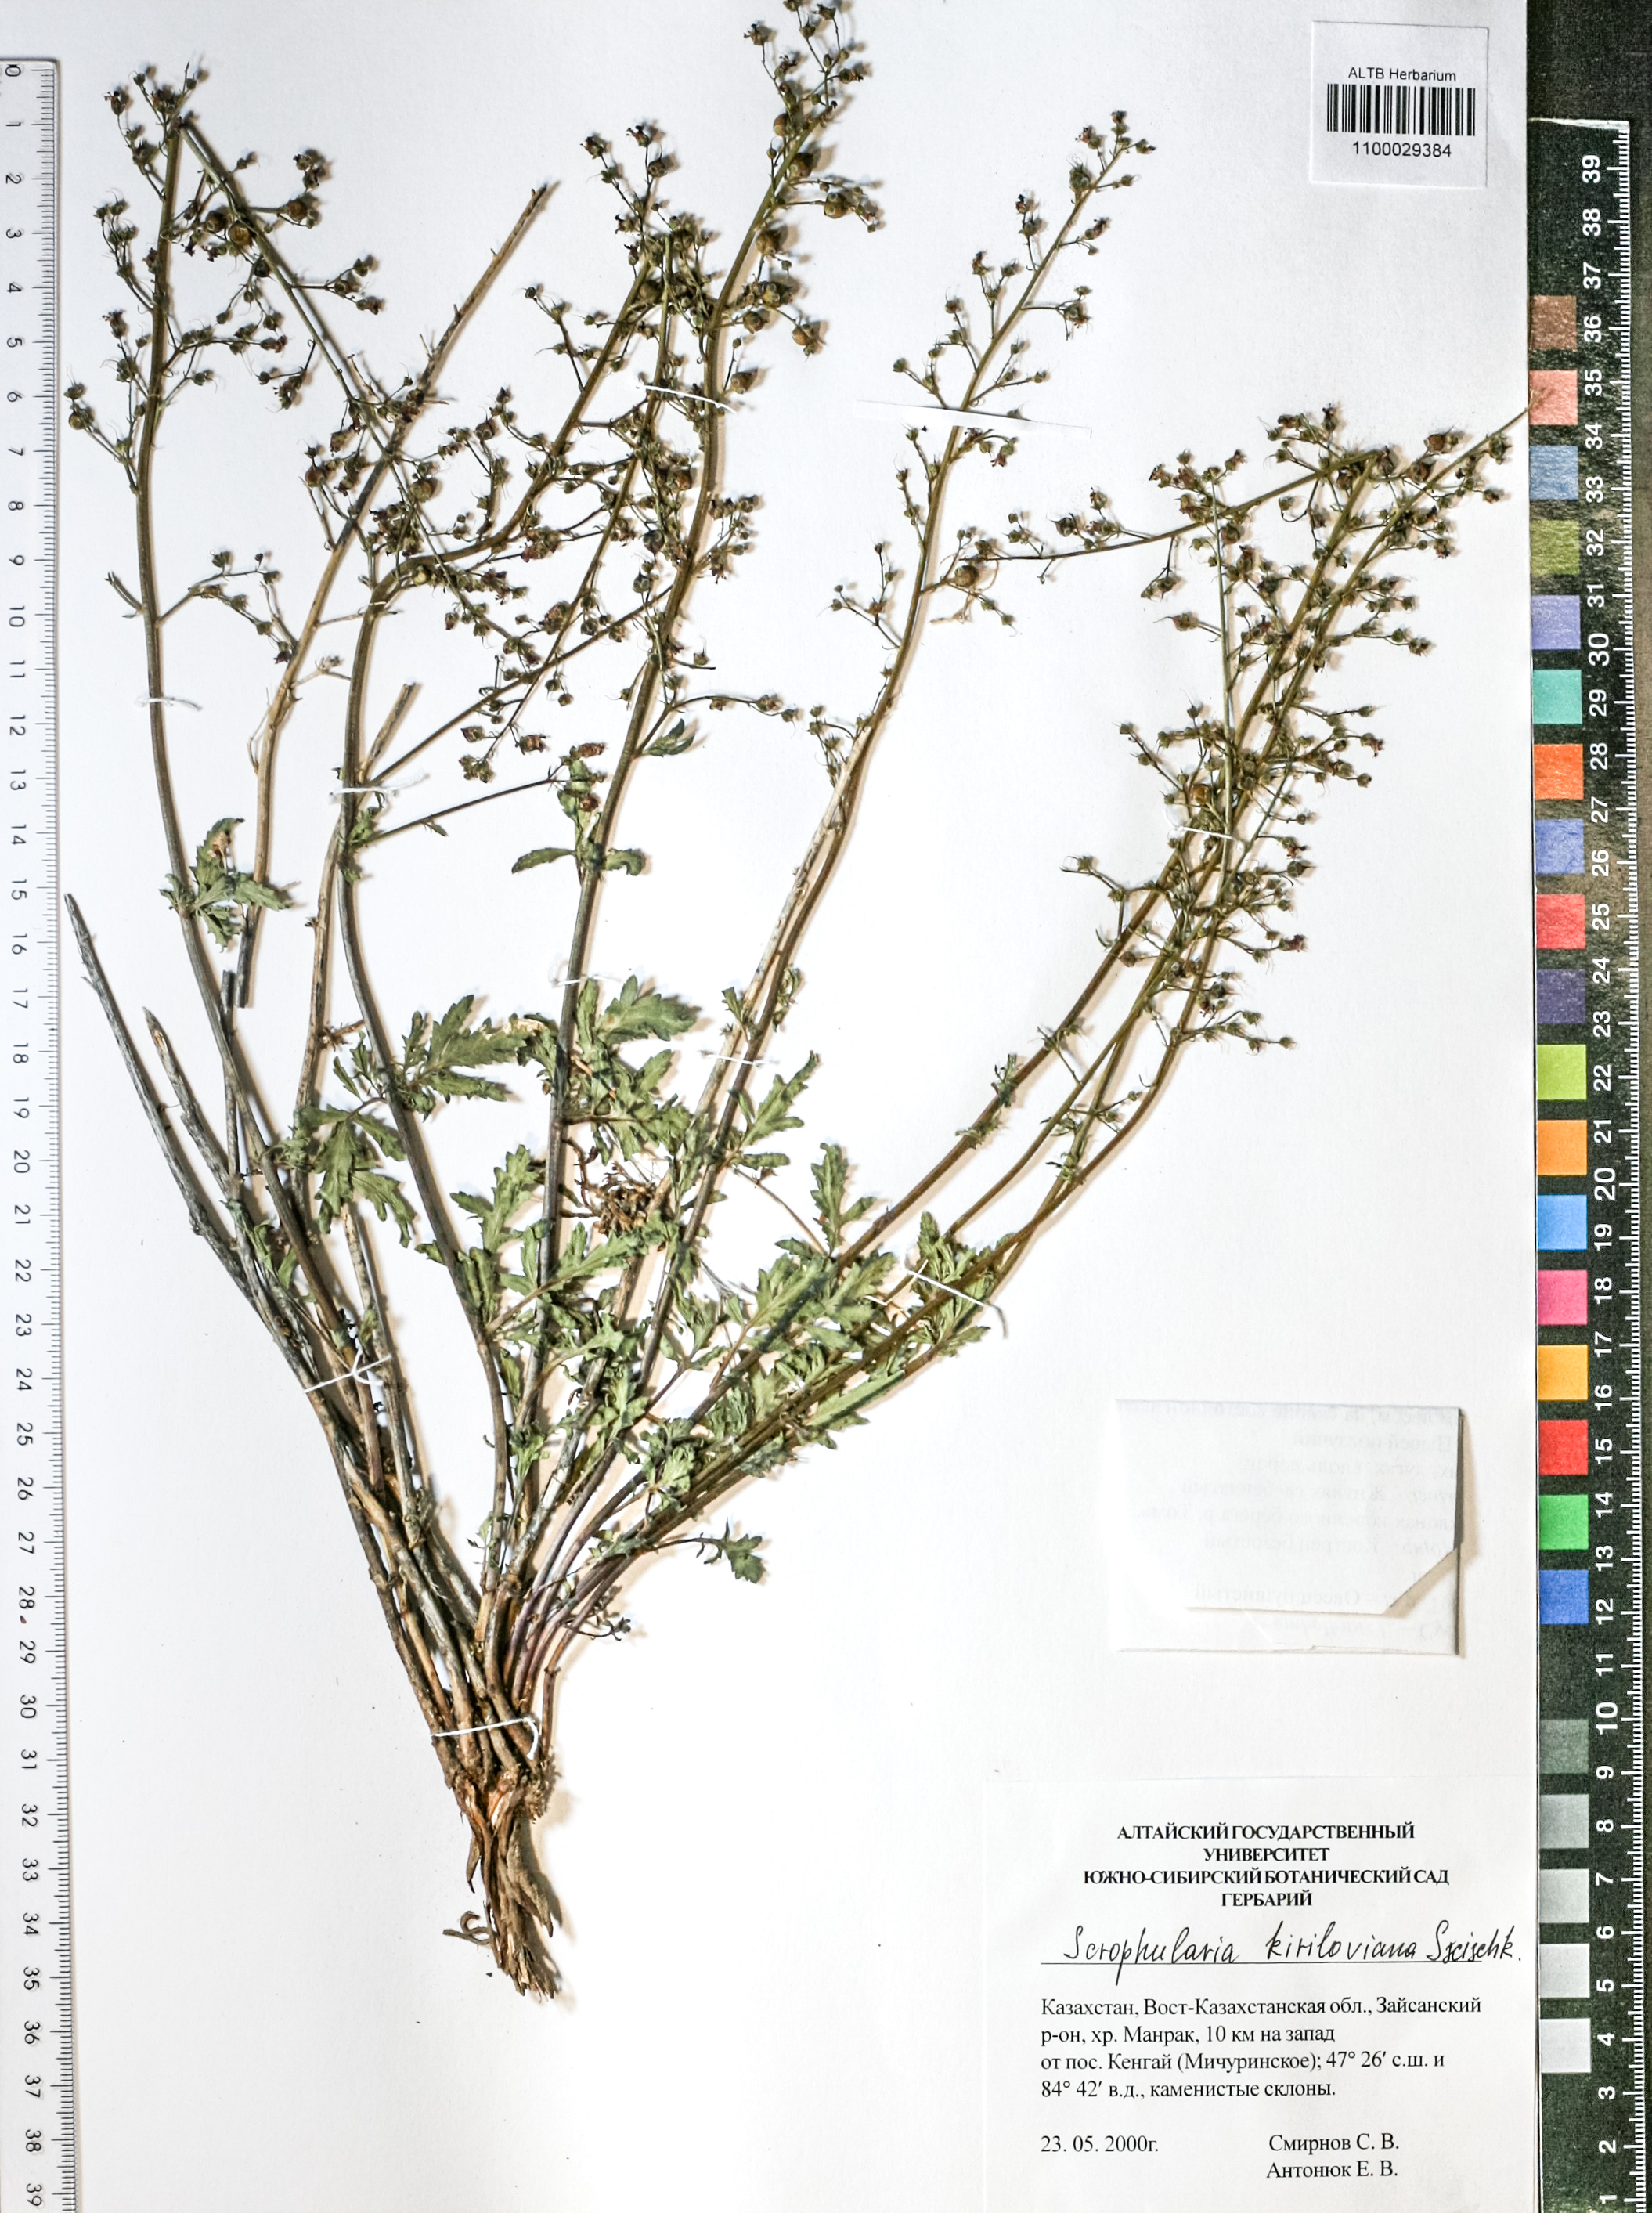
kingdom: Plantae
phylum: Tracheophyta
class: Magnoliopsida
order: Lamiales
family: Scrophulariaceae
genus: Scrophularia
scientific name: Scrophularia kiriloviana
